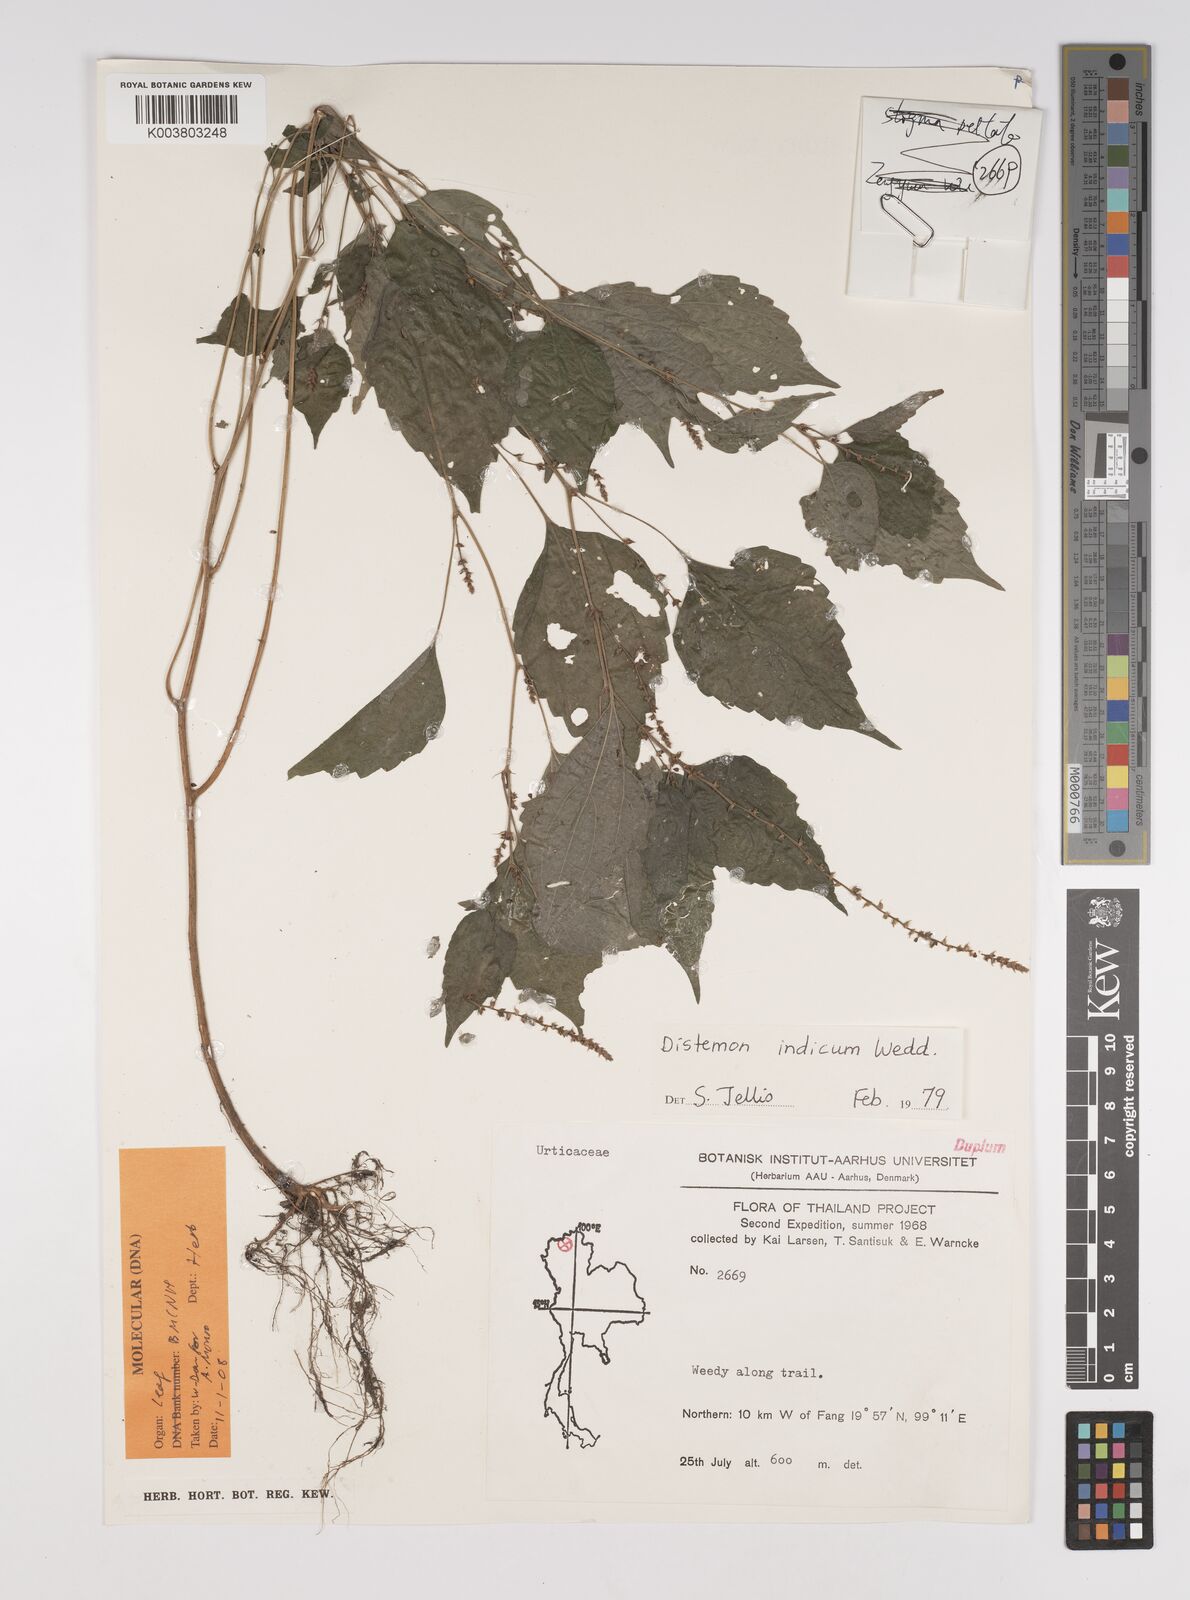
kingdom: Plantae
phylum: Tracheophyta
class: Magnoliopsida
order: Rosales
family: Urticaceae
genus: Neodistemon
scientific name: Neodistemon indicus
